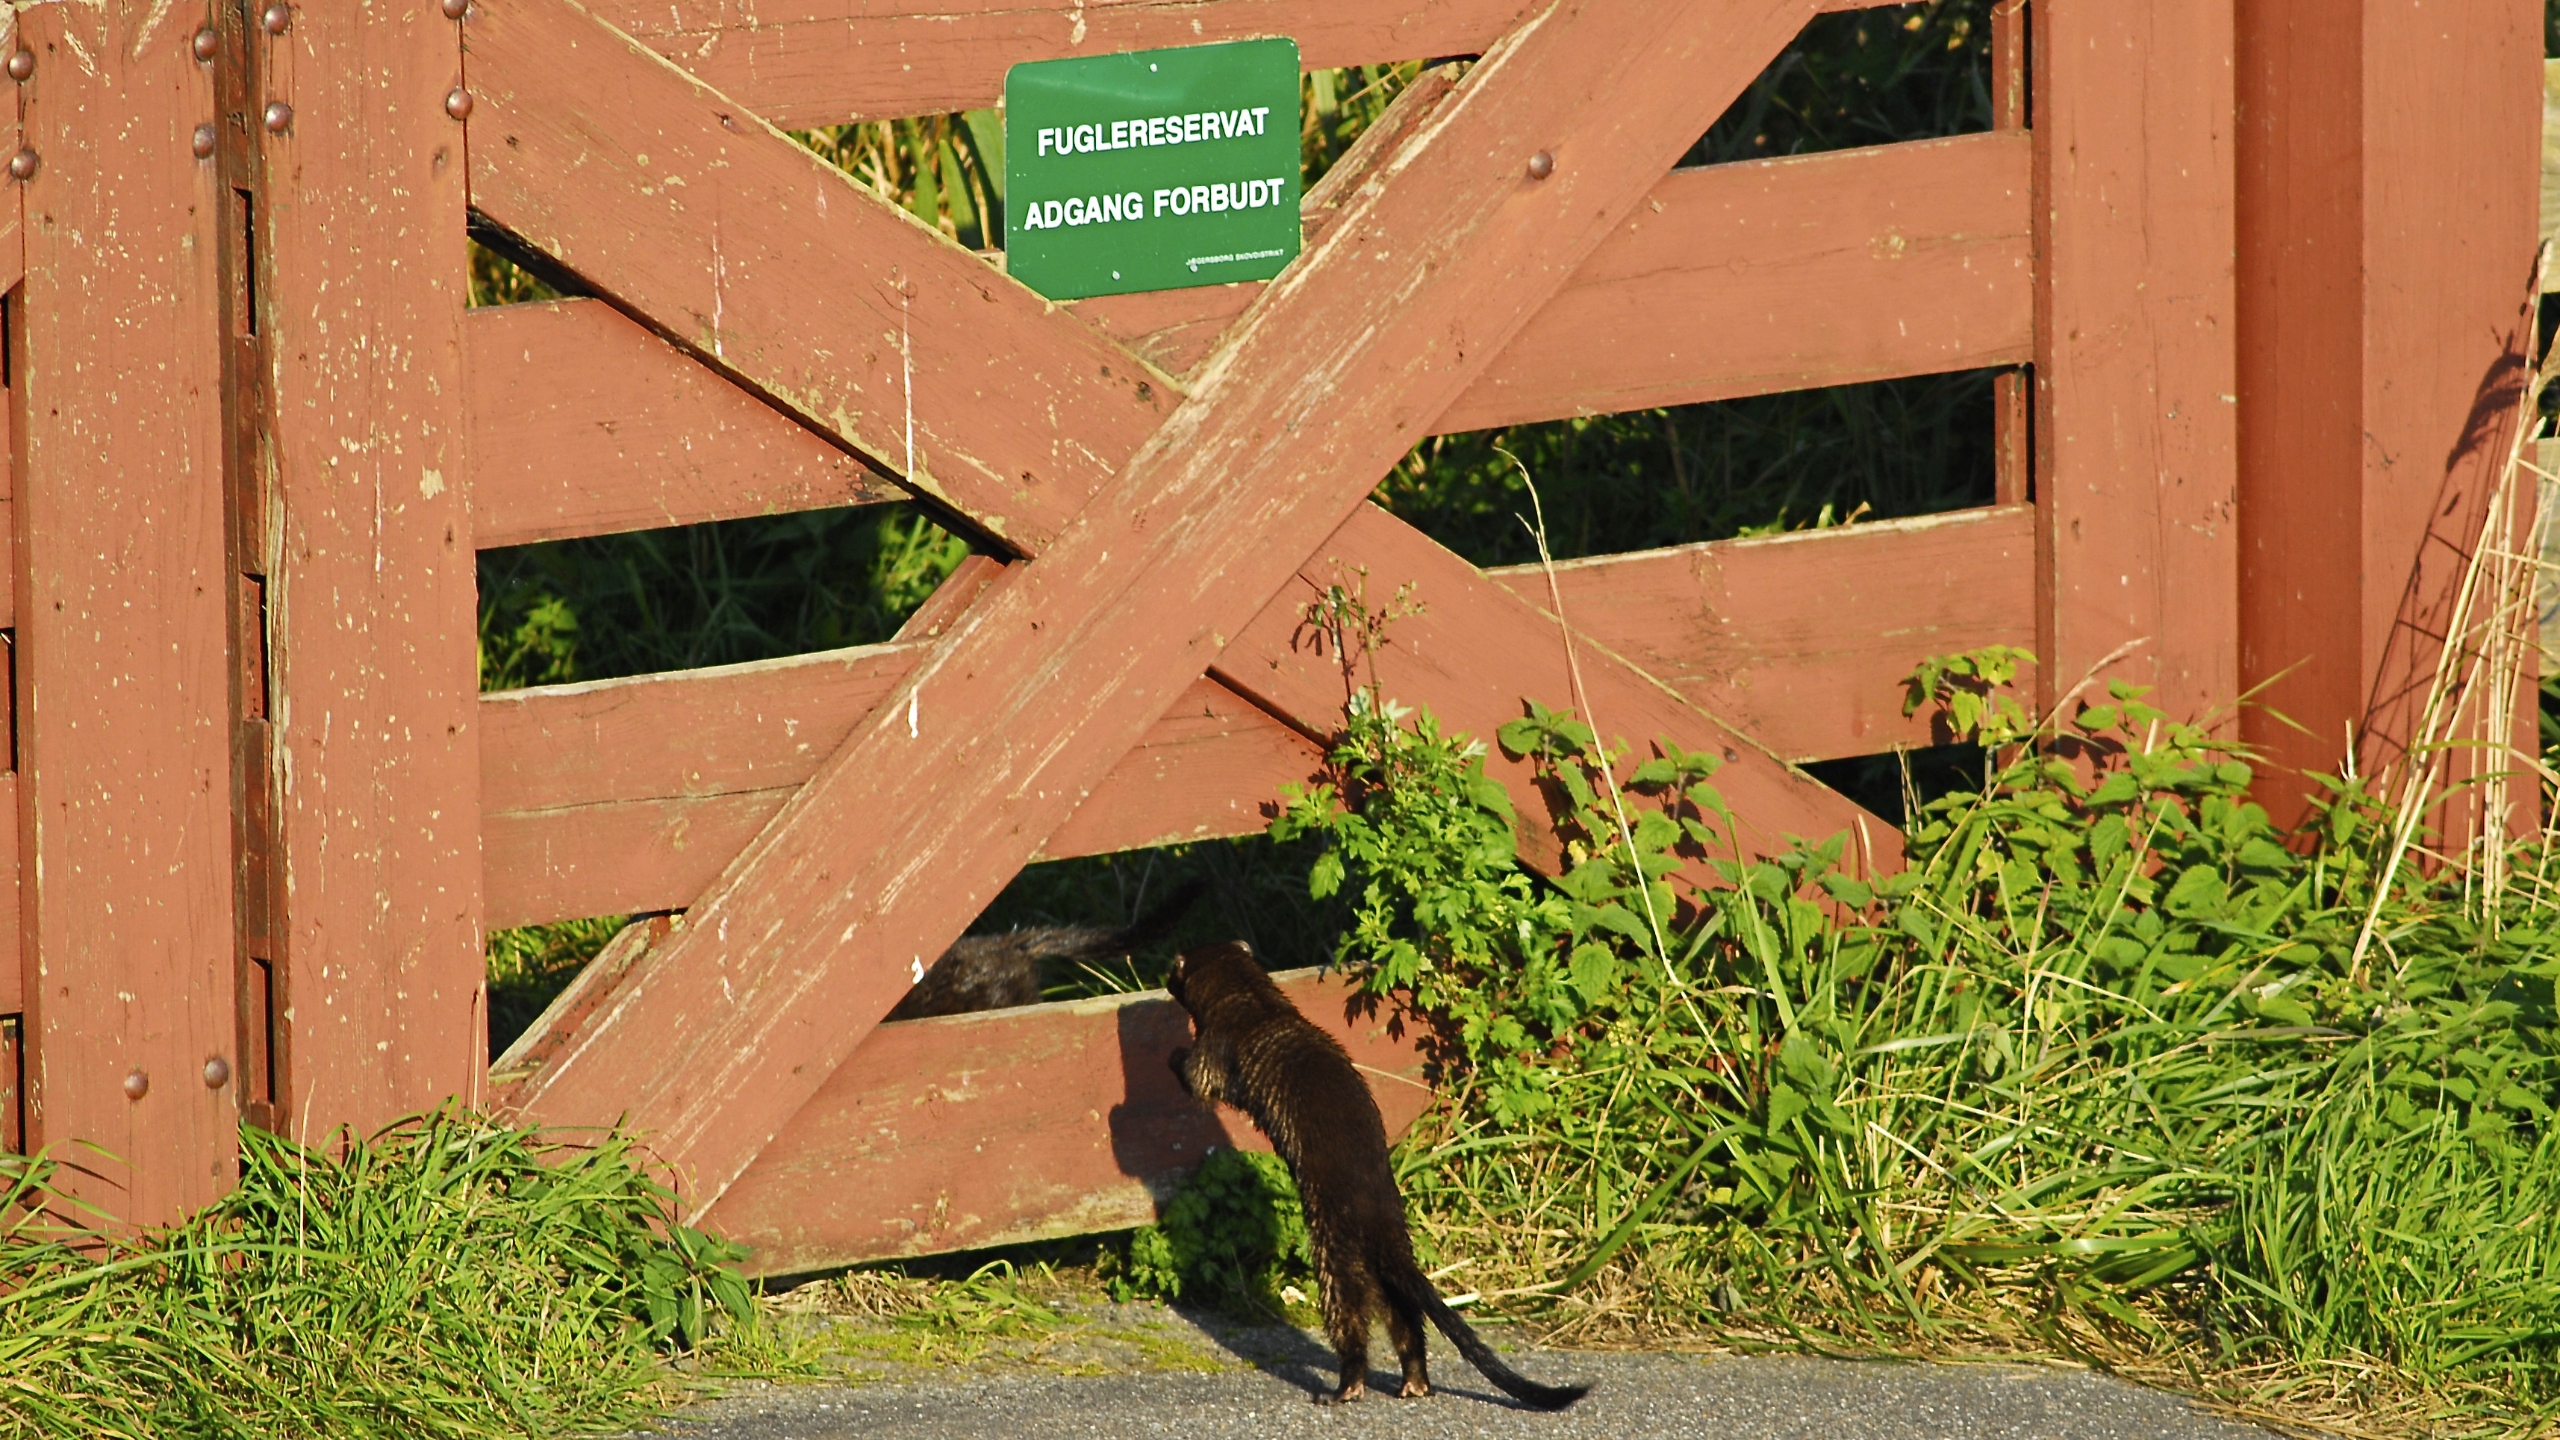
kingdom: Animalia
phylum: Chordata
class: Mammalia
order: Carnivora
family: Mustelidae
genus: Mustela
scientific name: Mustela vison
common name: Mink
